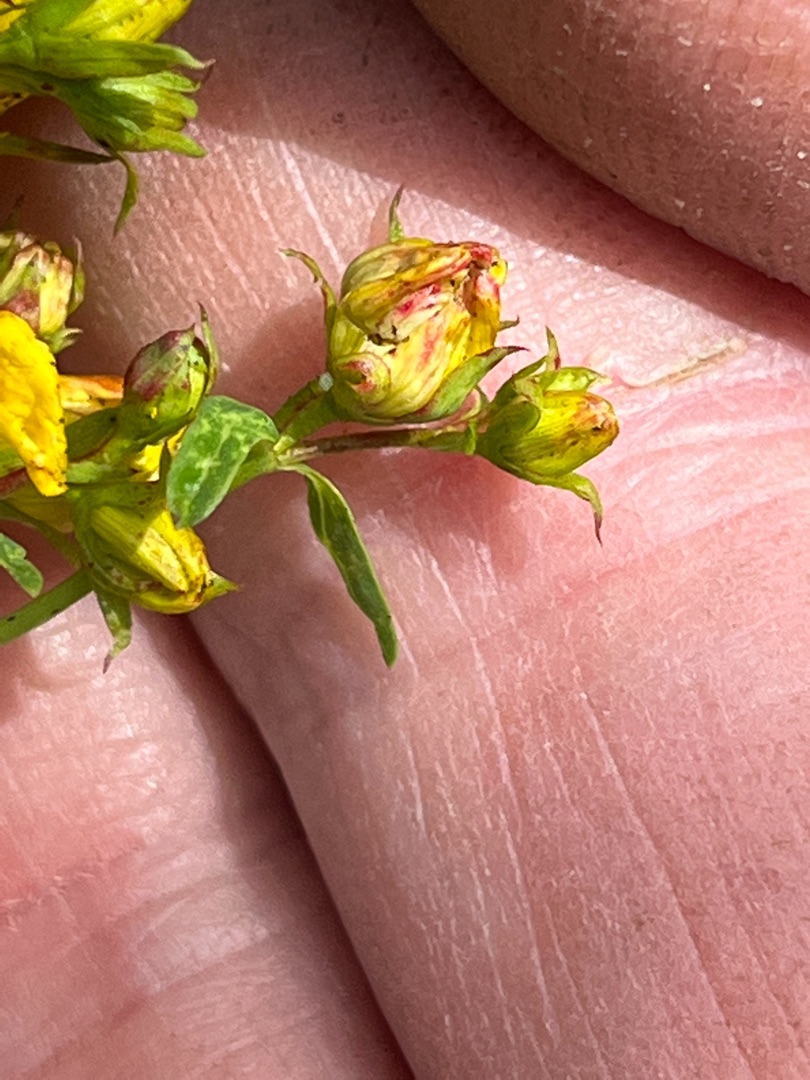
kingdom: Animalia
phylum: Arthropoda
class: Insecta
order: Diptera
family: Cecidomyiidae
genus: Contarinia
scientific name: Contarinia
